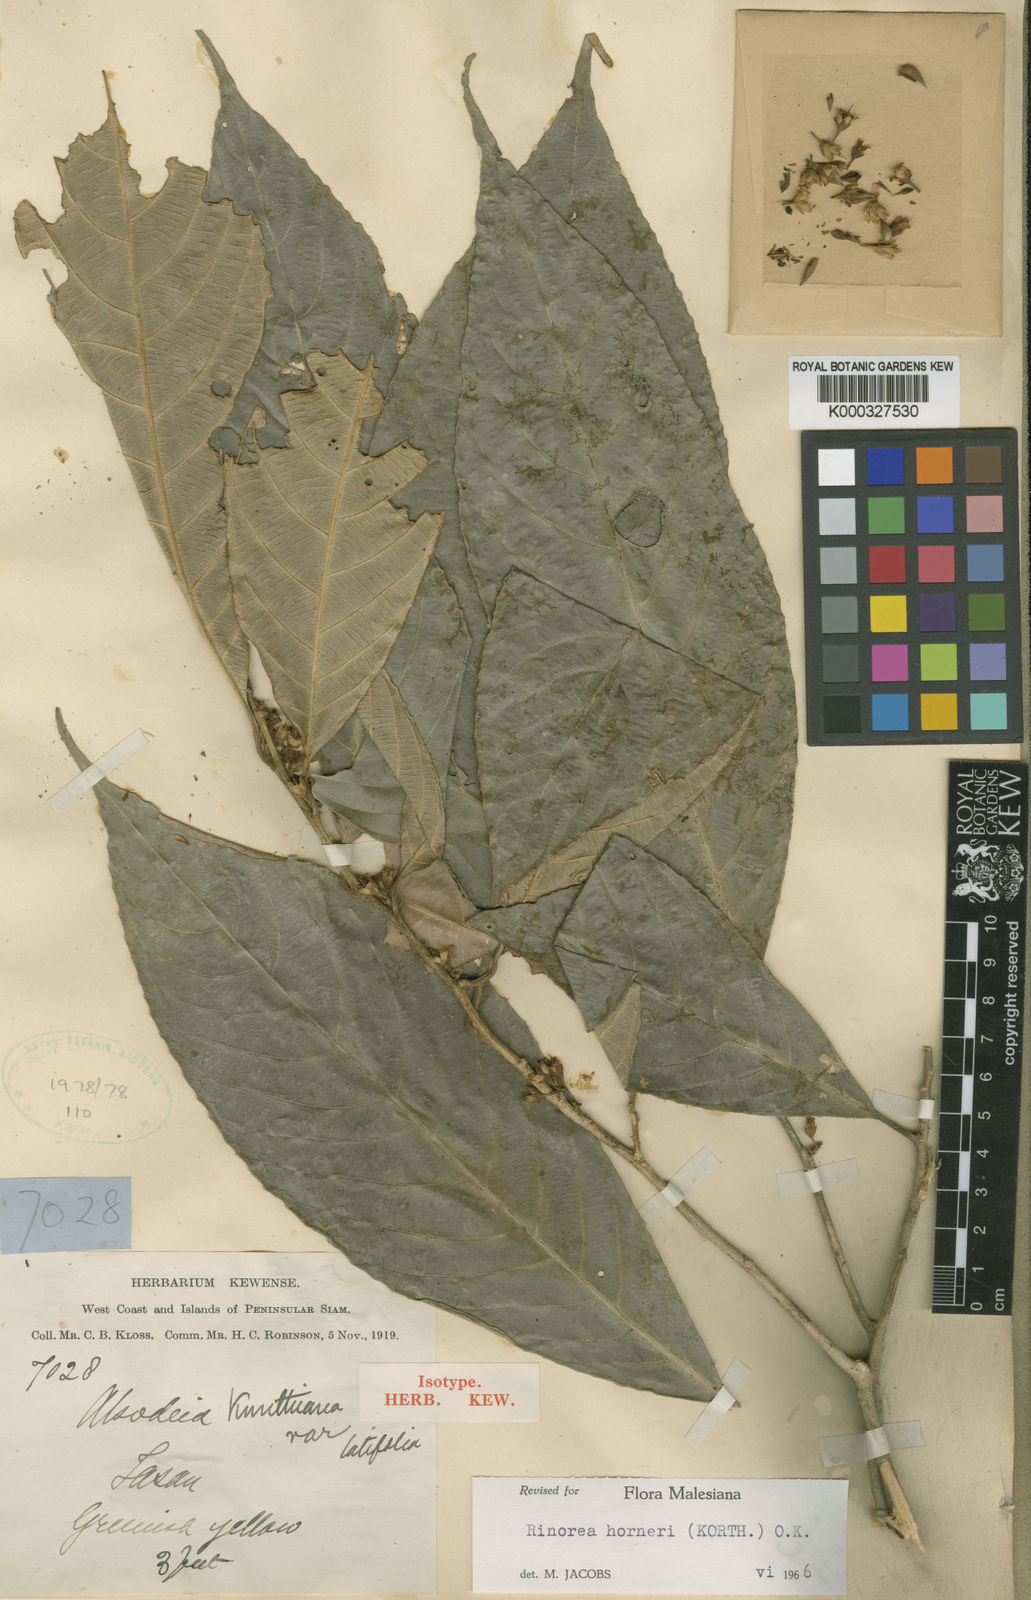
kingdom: Plantae
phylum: Tracheophyta
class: Magnoliopsida
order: Malpighiales
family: Violaceae
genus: Rinorea
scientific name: Rinorea horneri
